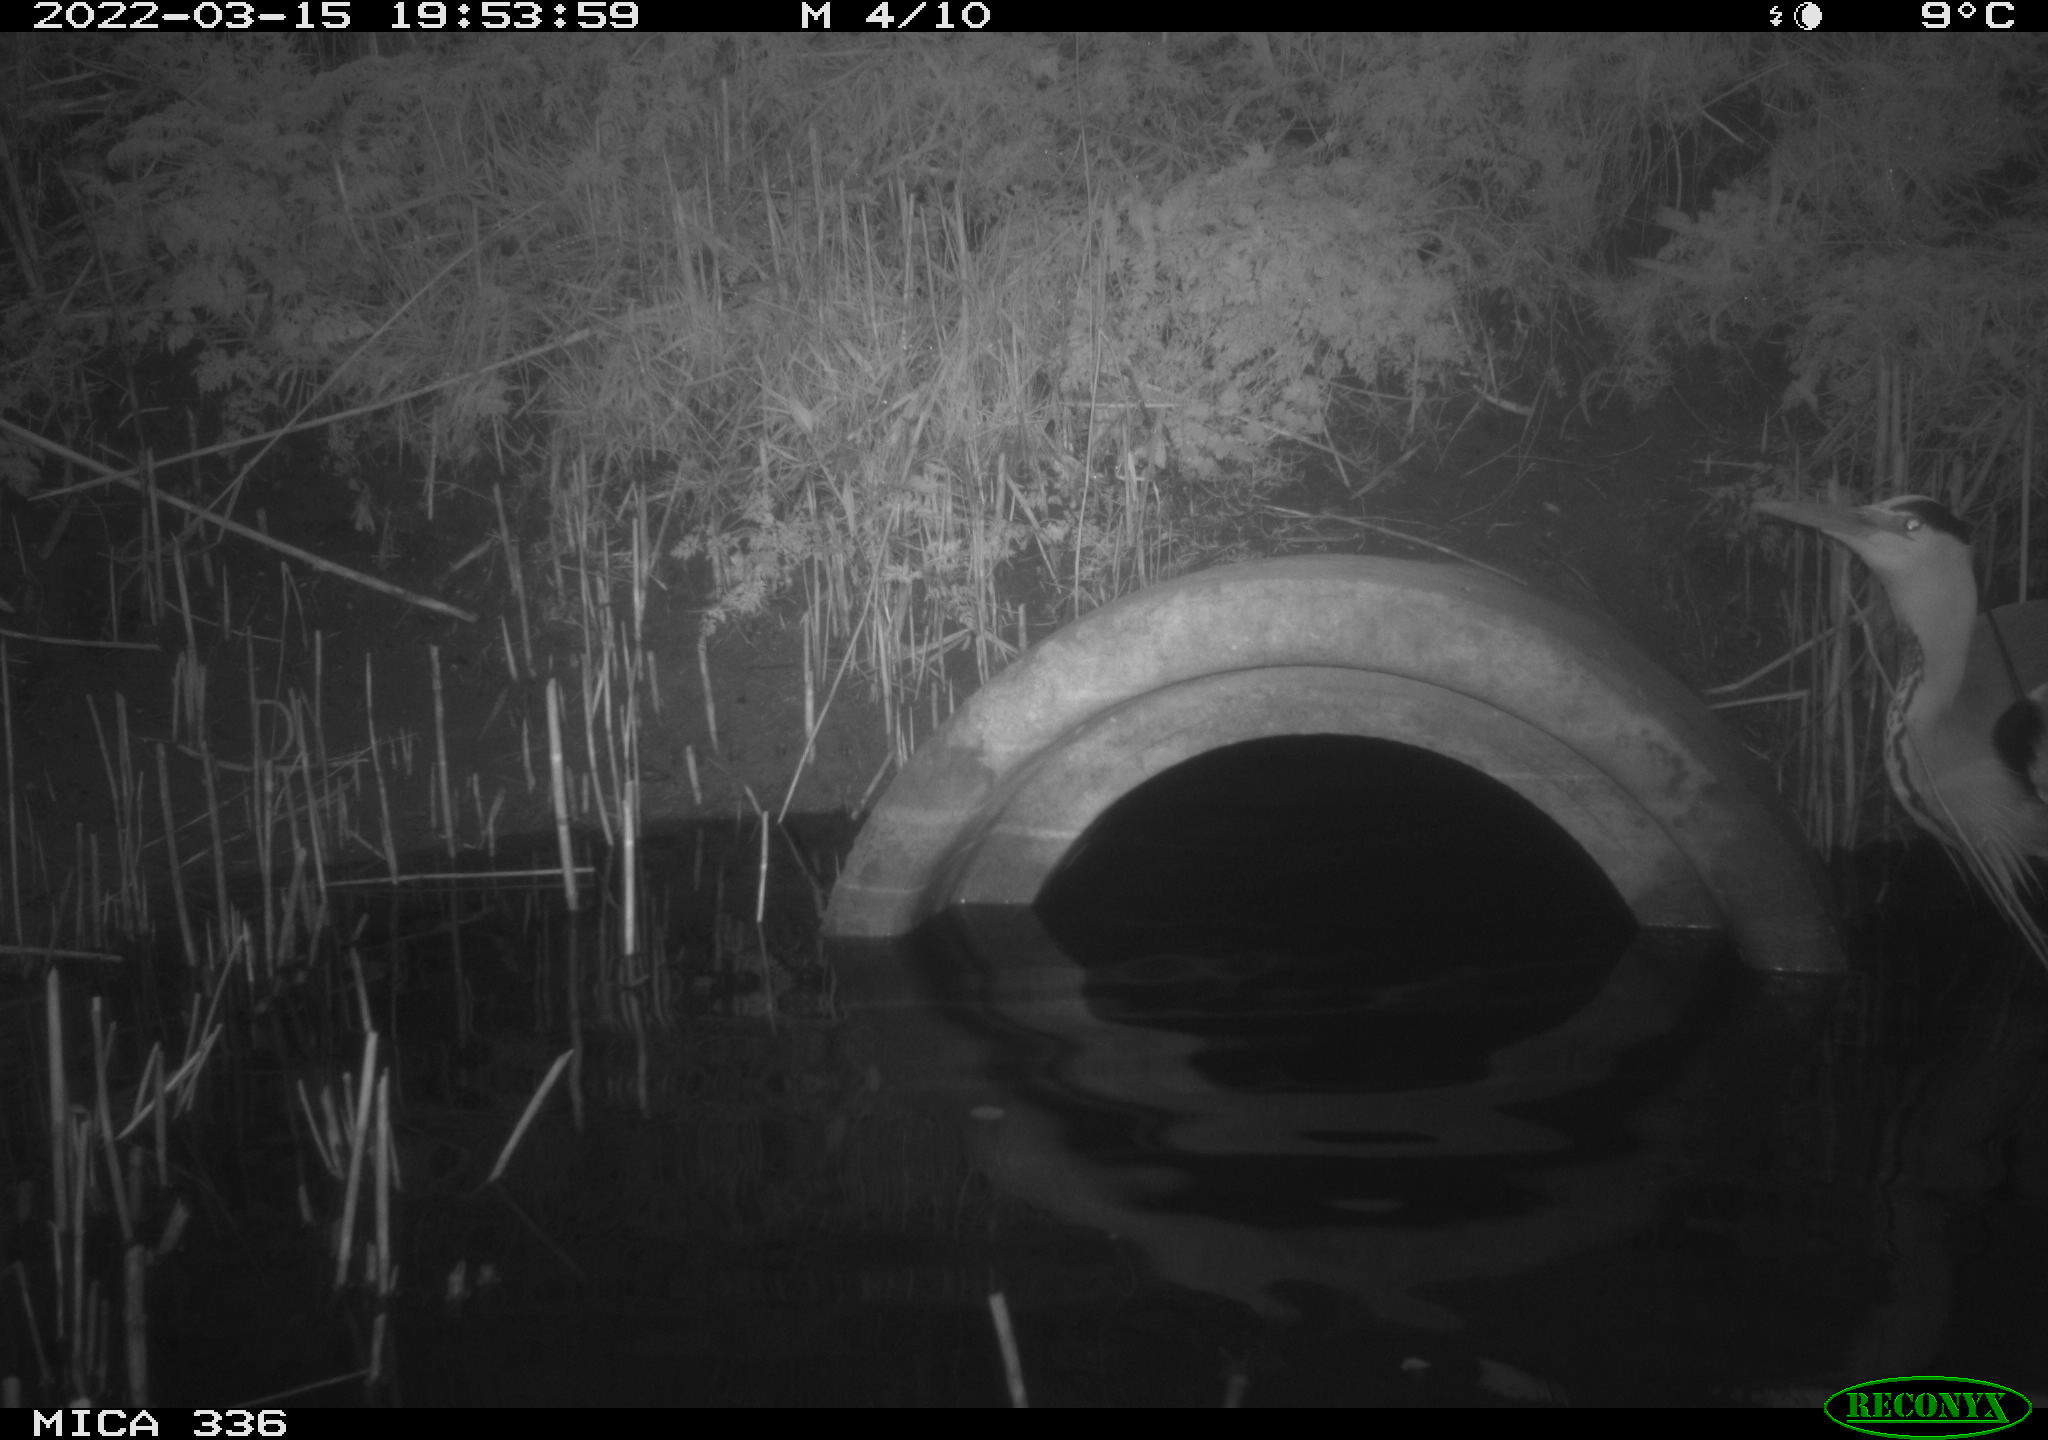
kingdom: Animalia
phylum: Chordata
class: Aves
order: Pelecaniformes
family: Ardeidae
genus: Ardea
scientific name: Ardea cinerea
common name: Grey heron
